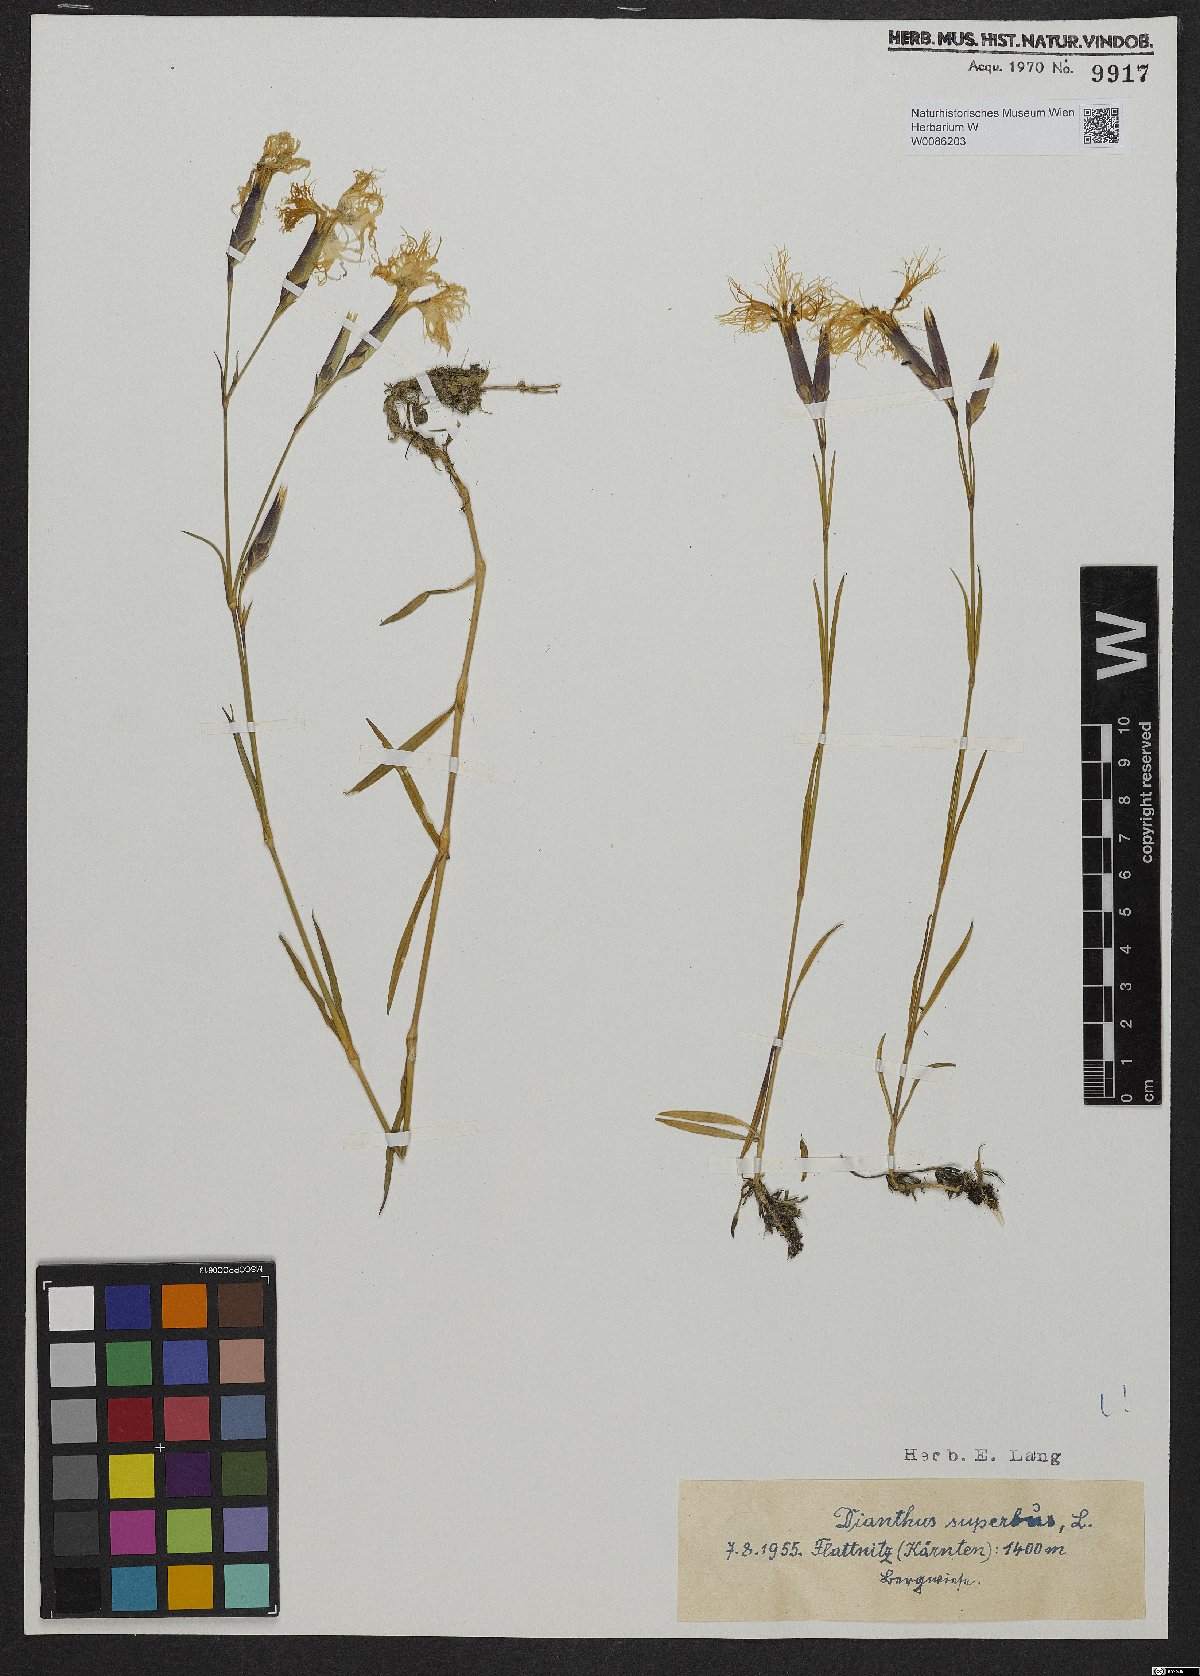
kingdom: Plantae
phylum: Tracheophyta
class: Magnoliopsida
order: Caryophyllales
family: Caryophyllaceae
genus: Dianthus
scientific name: Dianthus superbus
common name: Fringed pink
